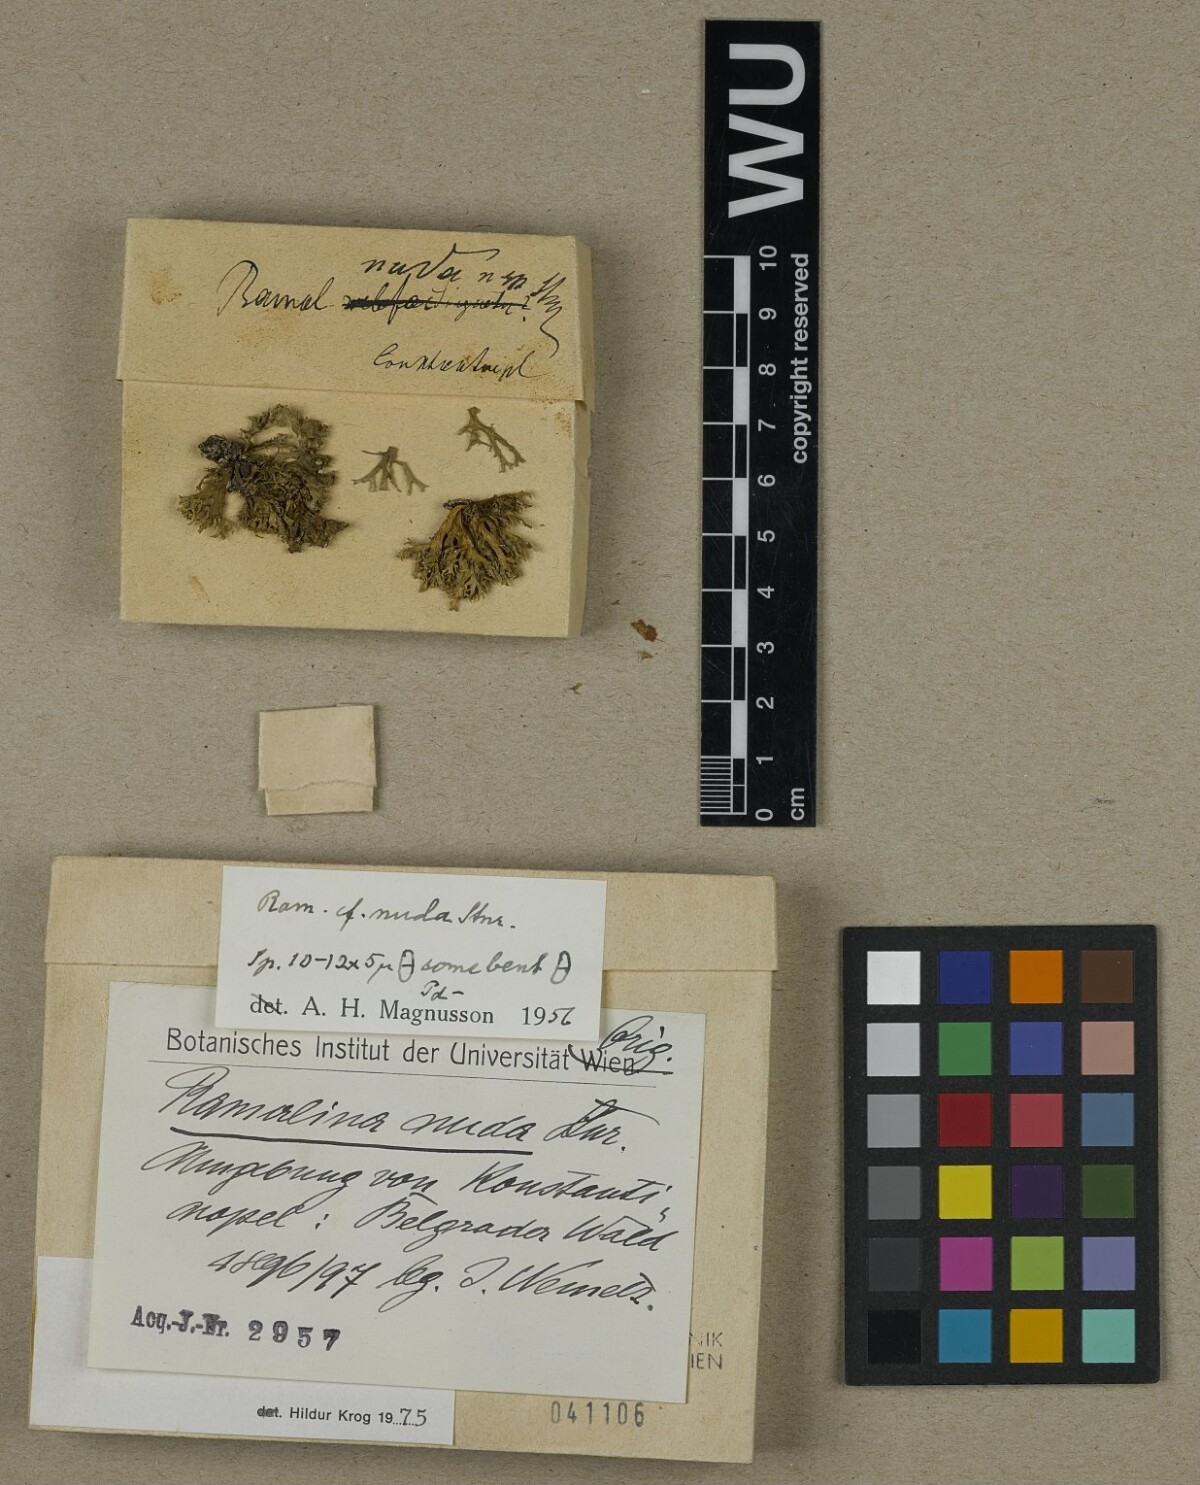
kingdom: Fungi
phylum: Ascomycota
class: Lecanoromycetes
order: Lecanorales
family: Ramalinaceae
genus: Ramalina
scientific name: Ramalina nuda
